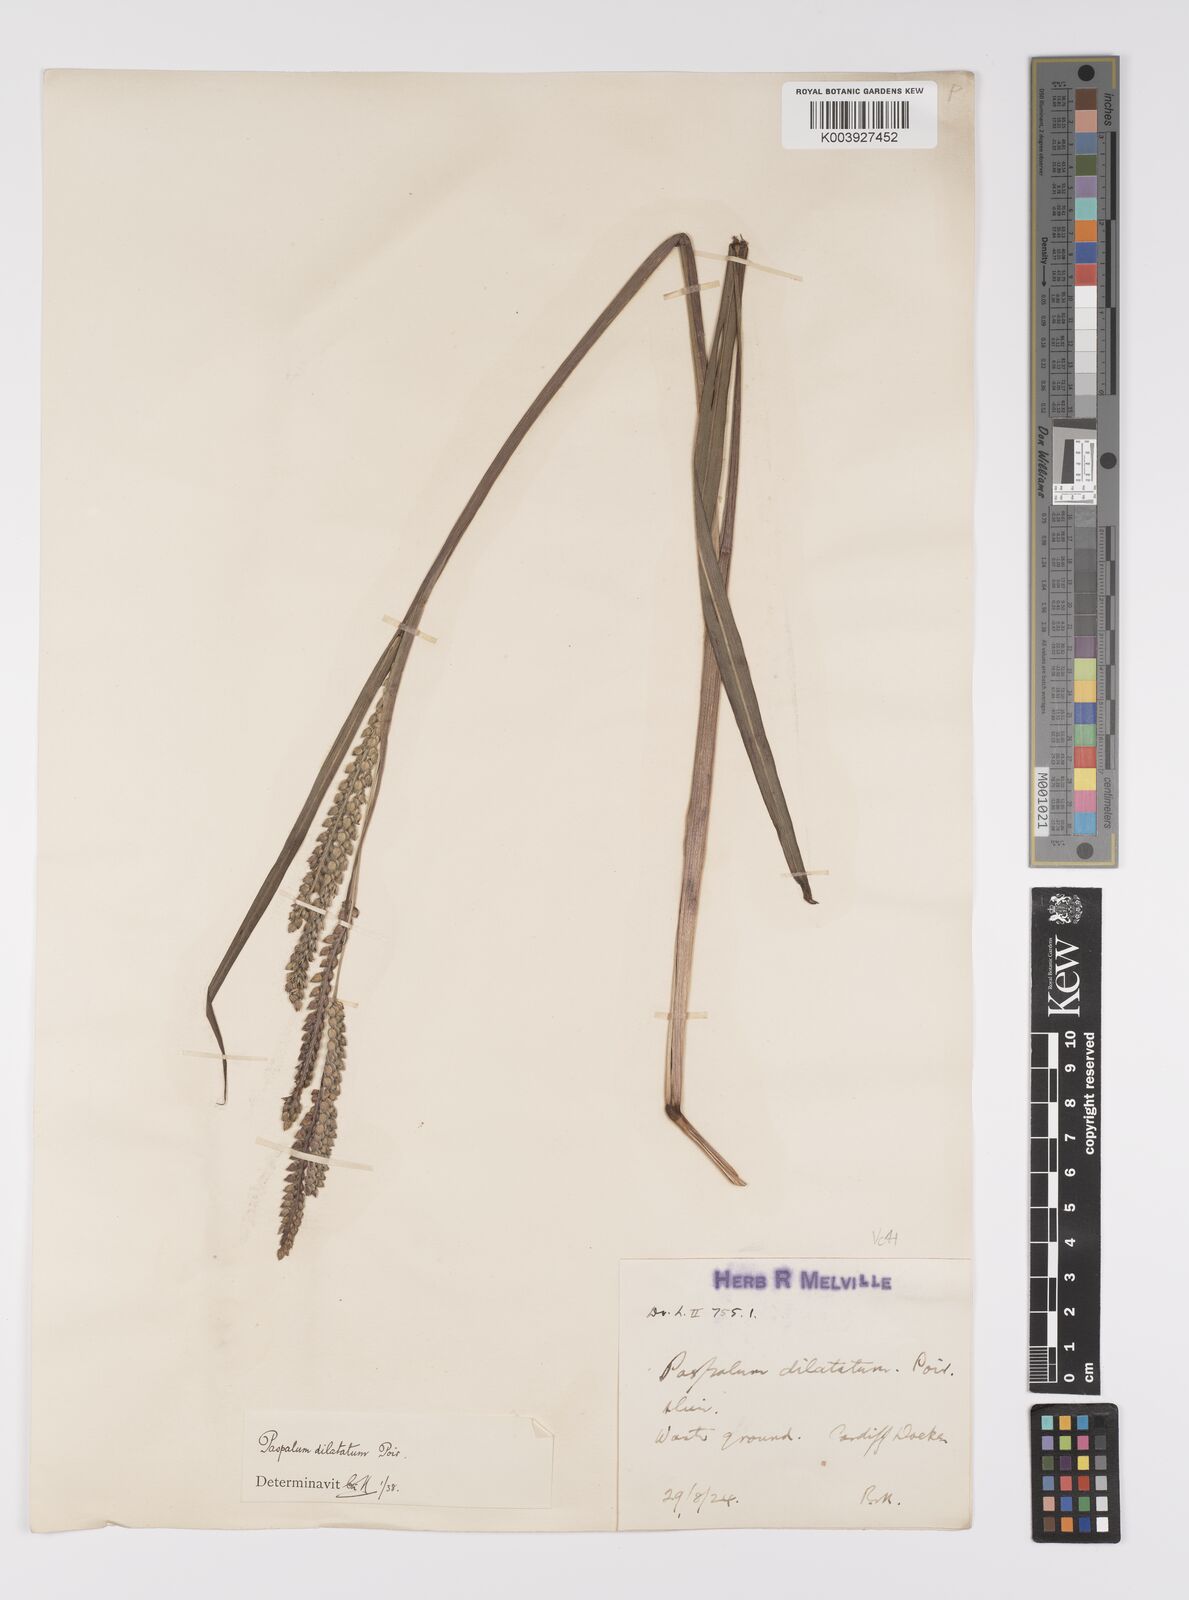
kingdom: Plantae
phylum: Tracheophyta
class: Liliopsida
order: Poales
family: Poaceae
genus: Paspalum
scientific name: Paspalum dilatatum
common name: Dallisgrass
